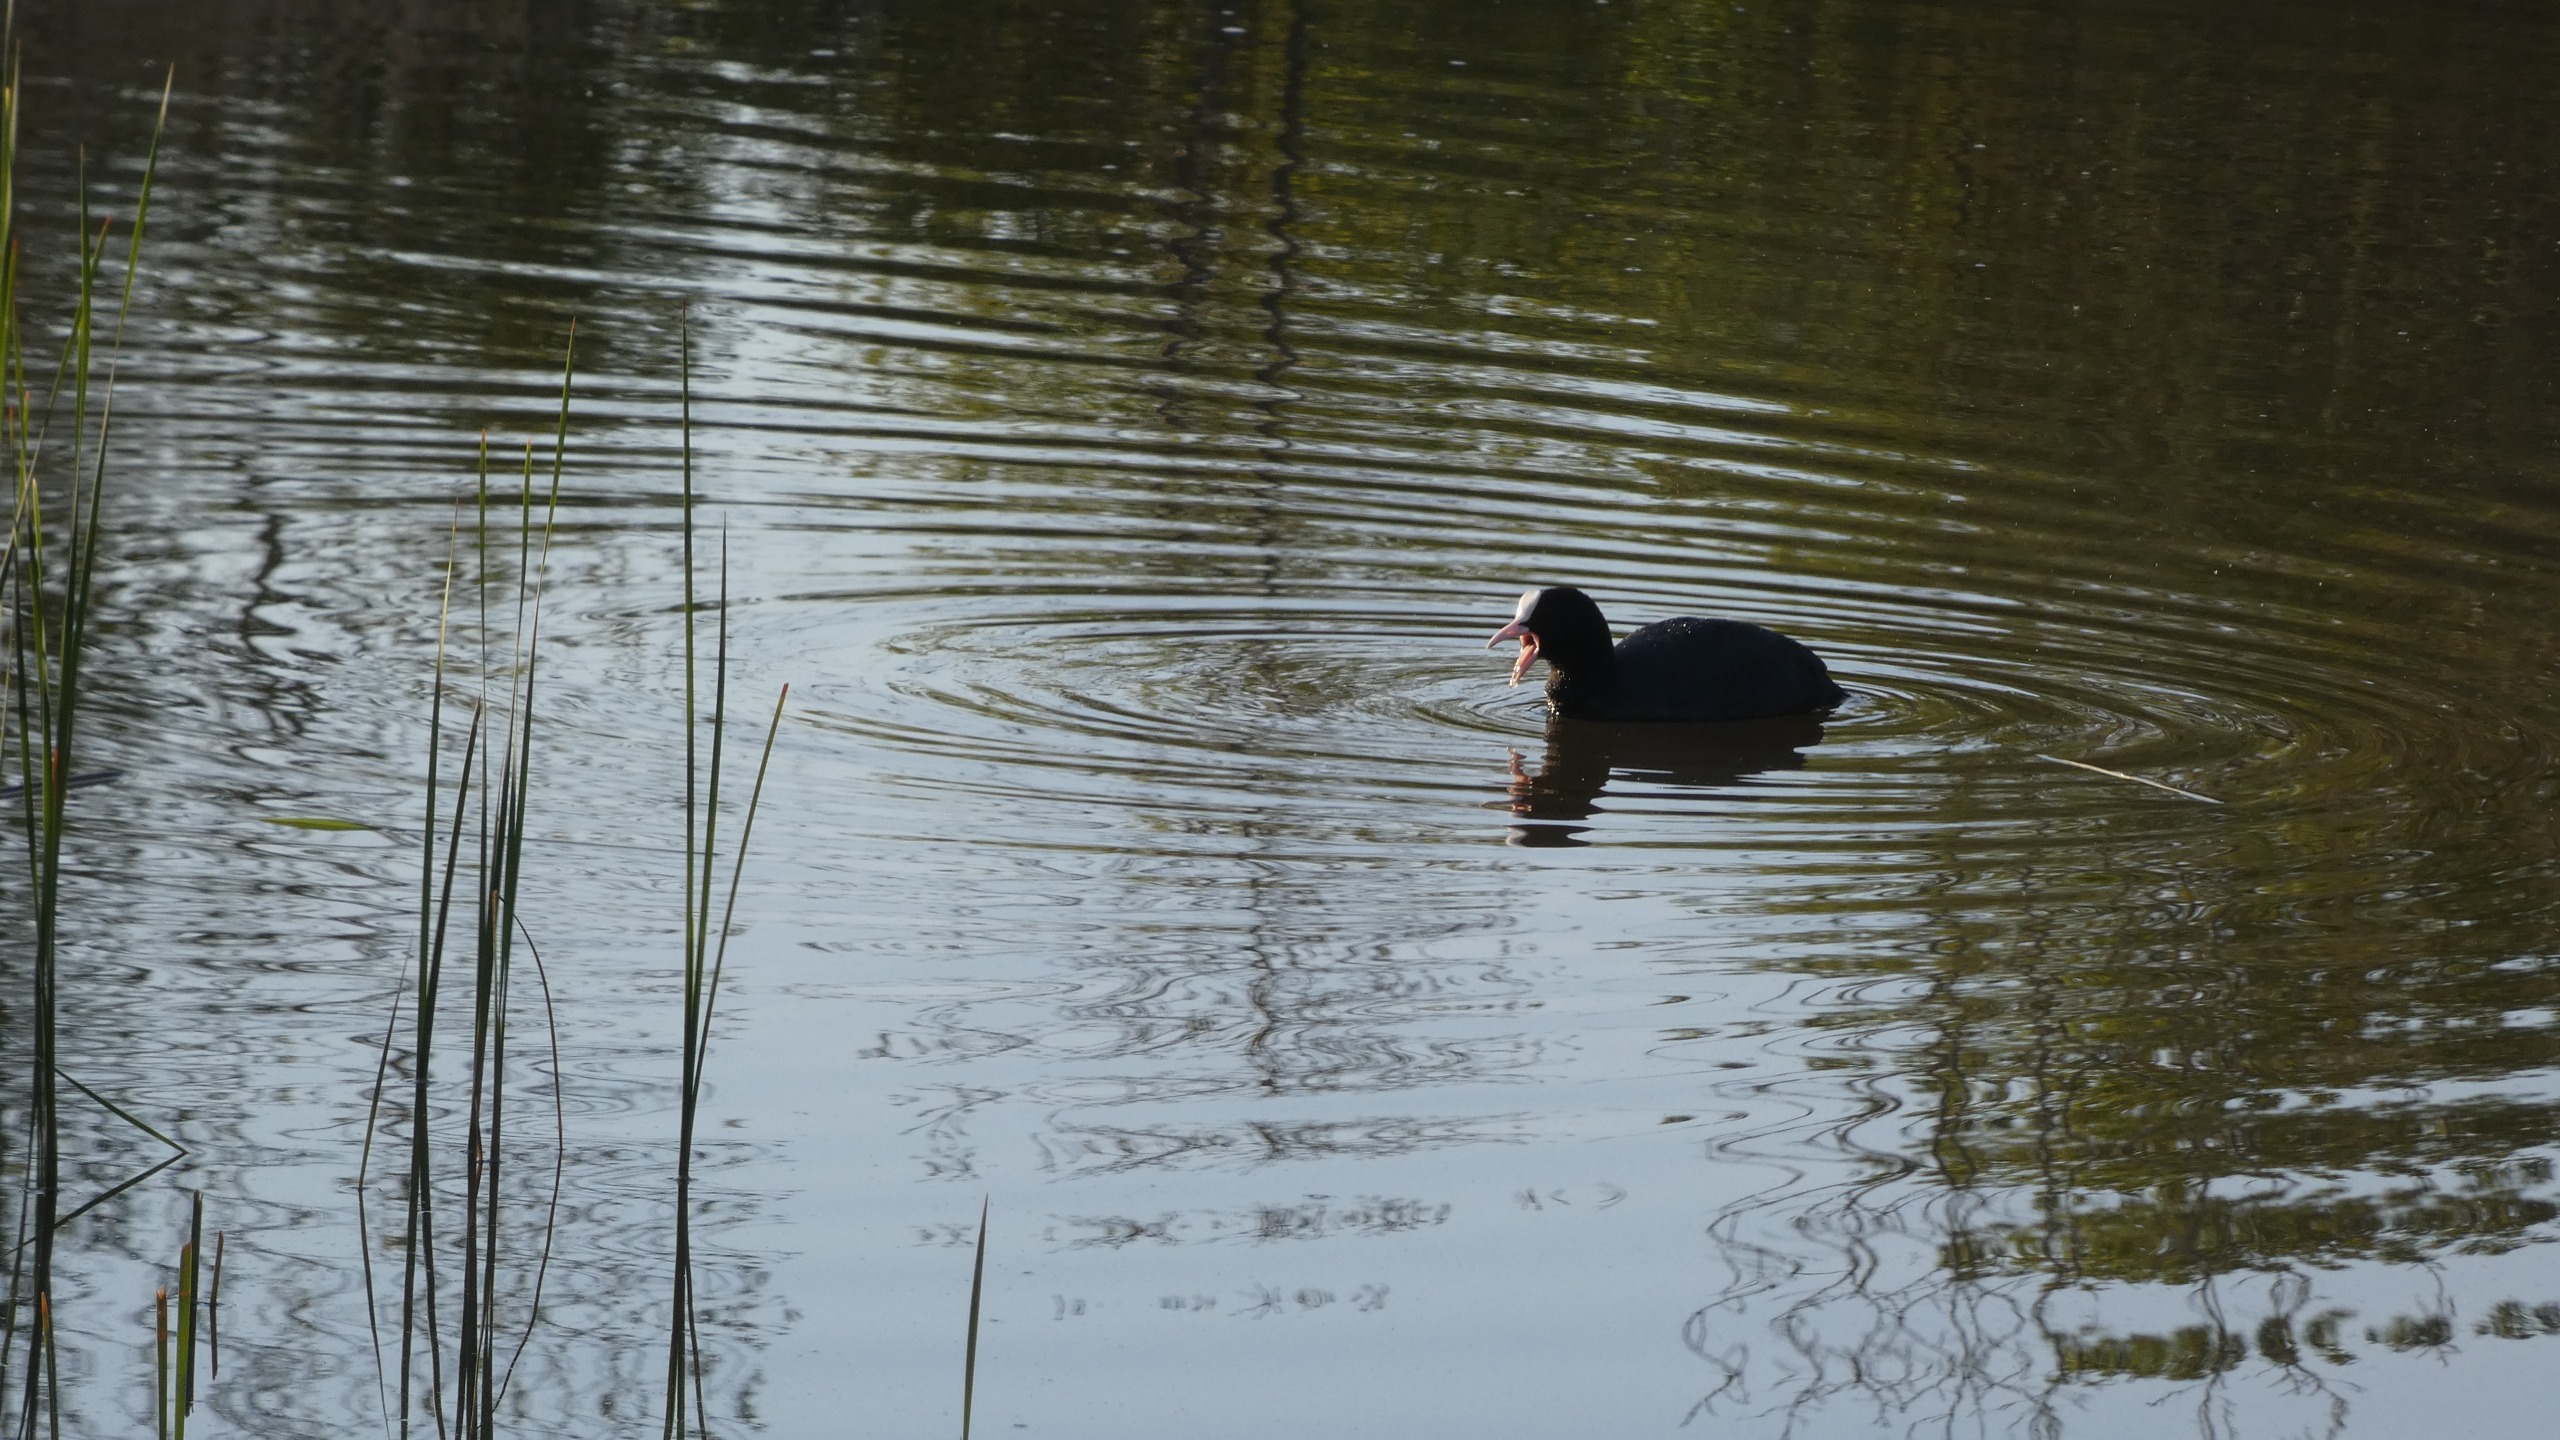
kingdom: Animalia
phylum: Chordata
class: Aves
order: Gruiformes
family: Rallidae
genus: Fulica
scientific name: Fulica atra
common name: Blishøne
